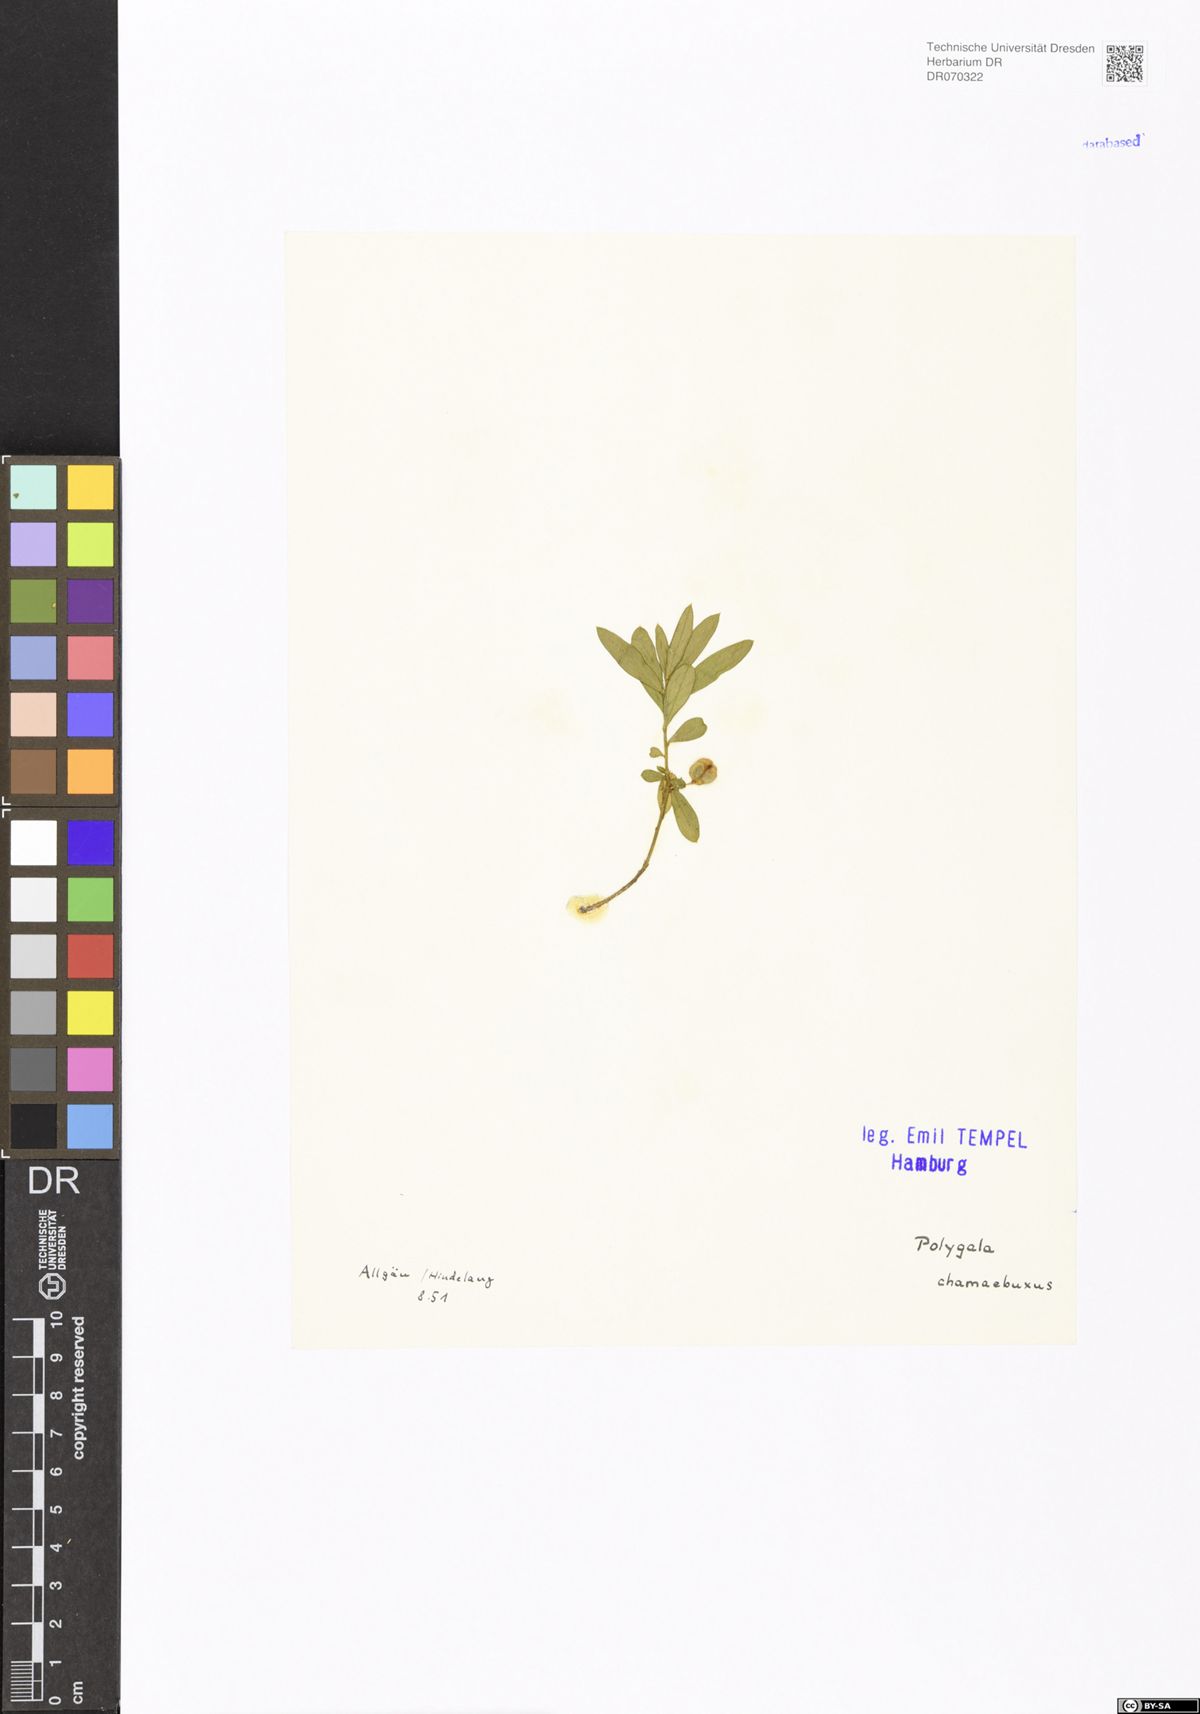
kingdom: Plantae
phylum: Tracheophyta
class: Magnoliopsida
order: Fabales
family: Polygalaceae
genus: Polygaloides
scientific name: Polygaloides chamaebuxus
